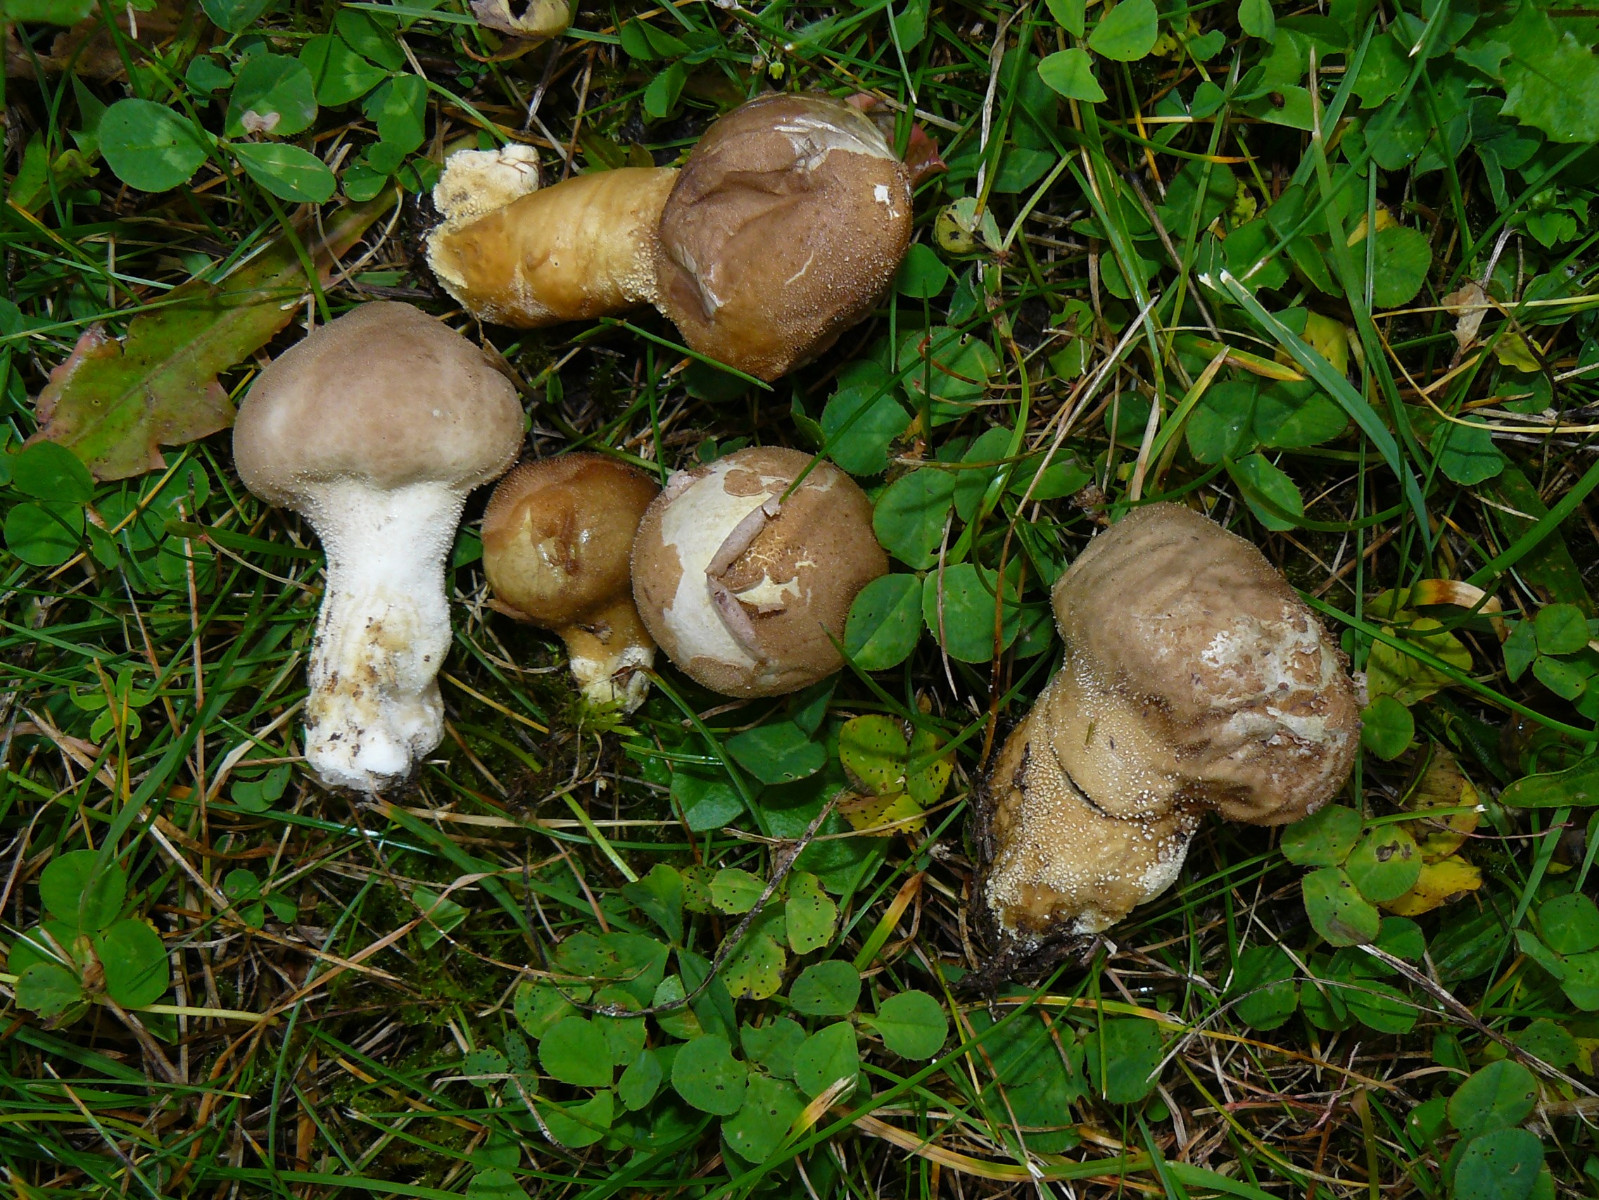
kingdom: Fungi
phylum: Basidiomycota
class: Agaricomycetes
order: Agaricales
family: Lycoperdaceae
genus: Lycoperdon
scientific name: Lycoperdon lividum
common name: mark-støvbold
